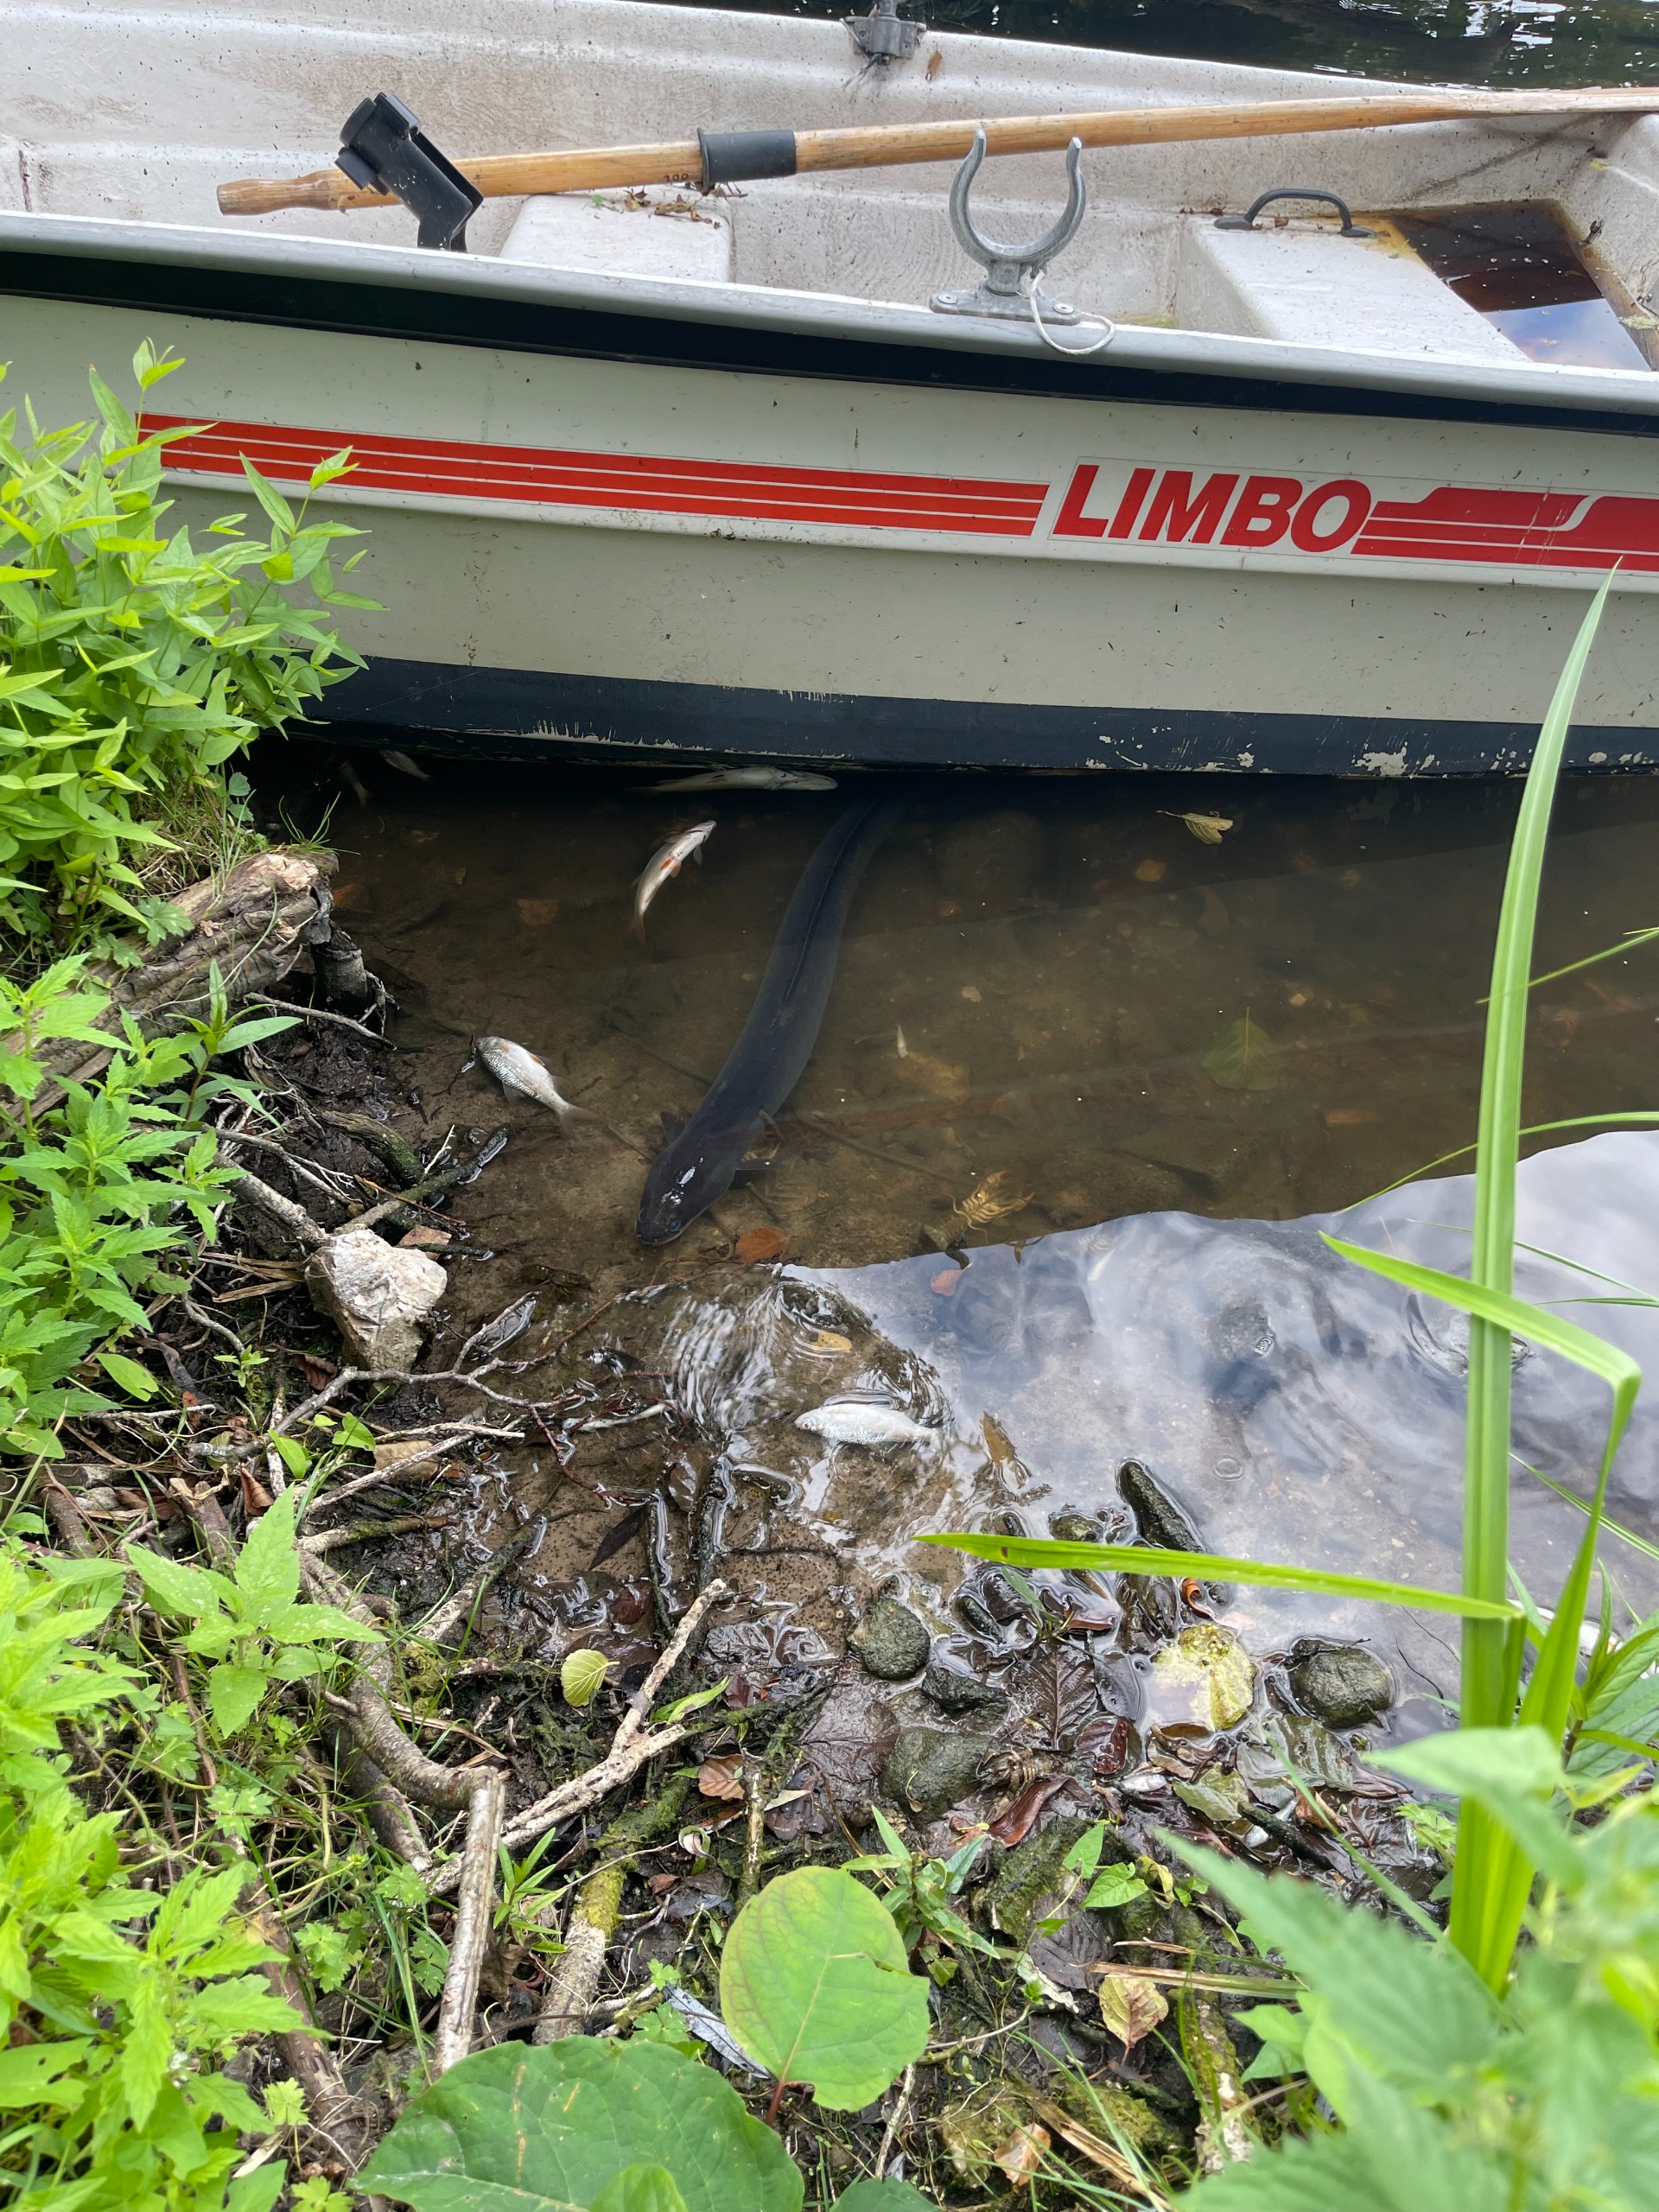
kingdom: Animalia
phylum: Chordata
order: Anguilliformes
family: Anguillidae
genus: Anguilla
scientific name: Anguilla anguilla
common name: Europæisk ål
